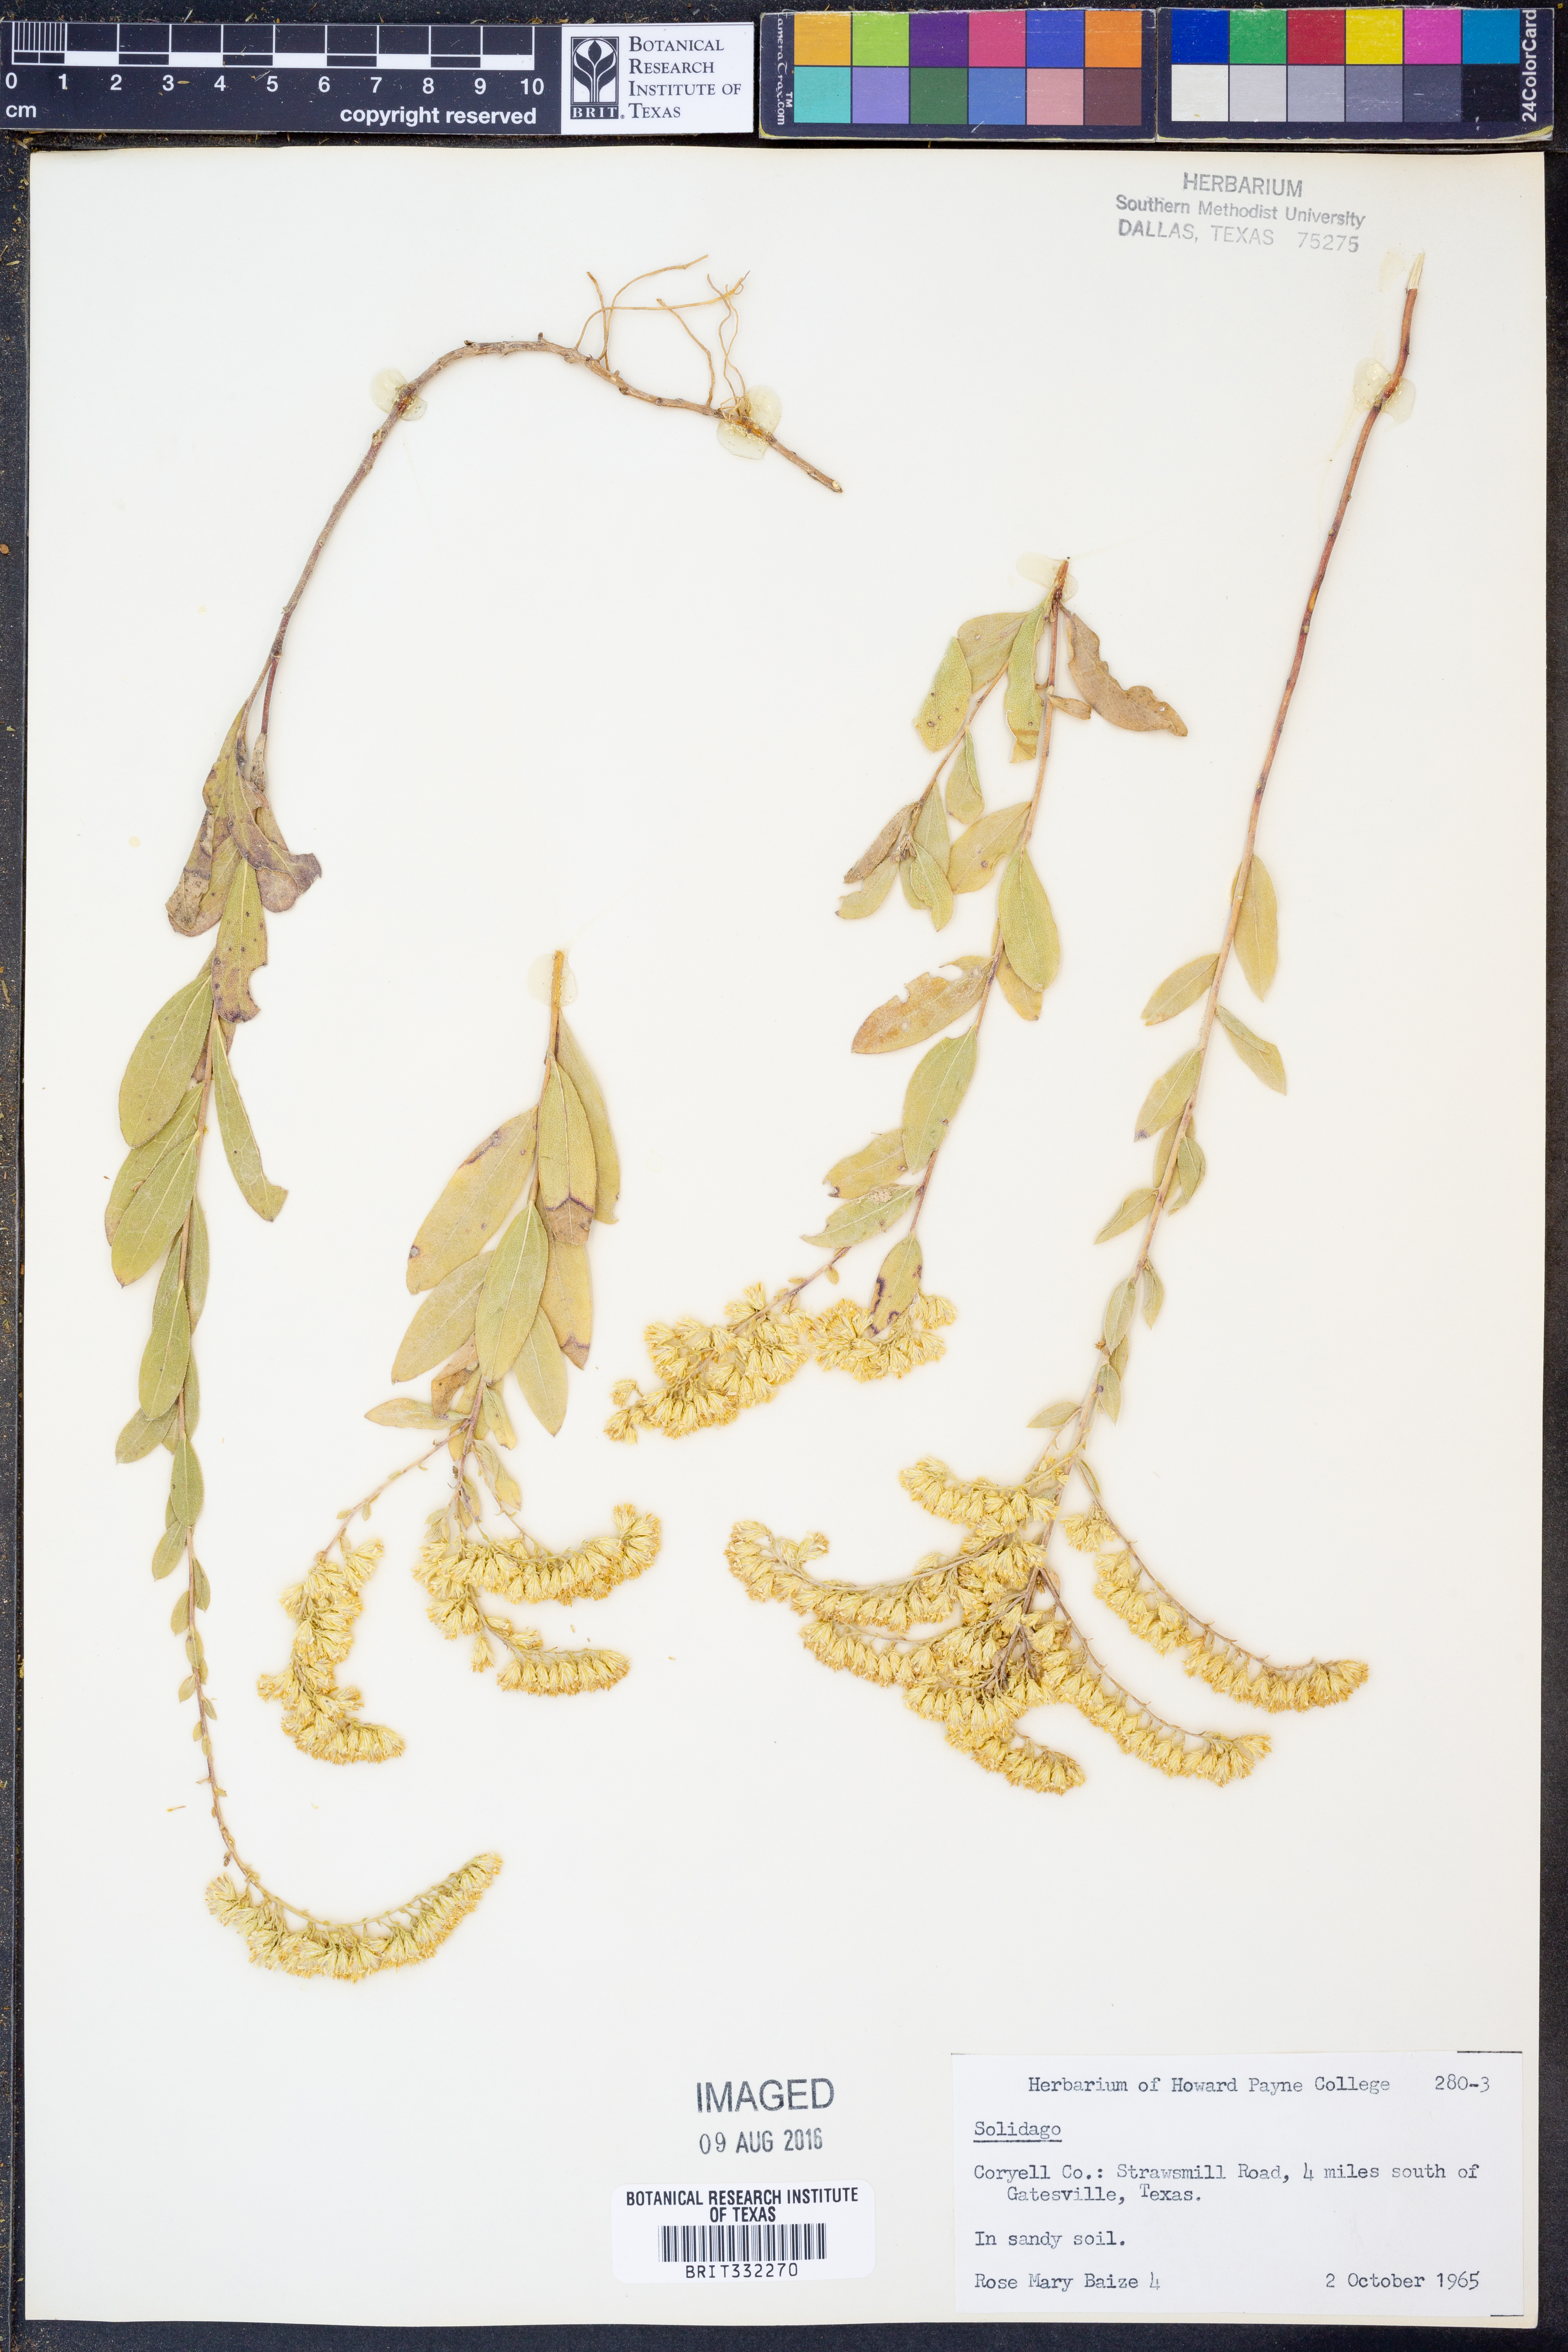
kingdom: Plantae
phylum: Tracheophyta
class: Magnoliopsida
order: Asterales
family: Asteraceae
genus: Solidago
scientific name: Solidago
